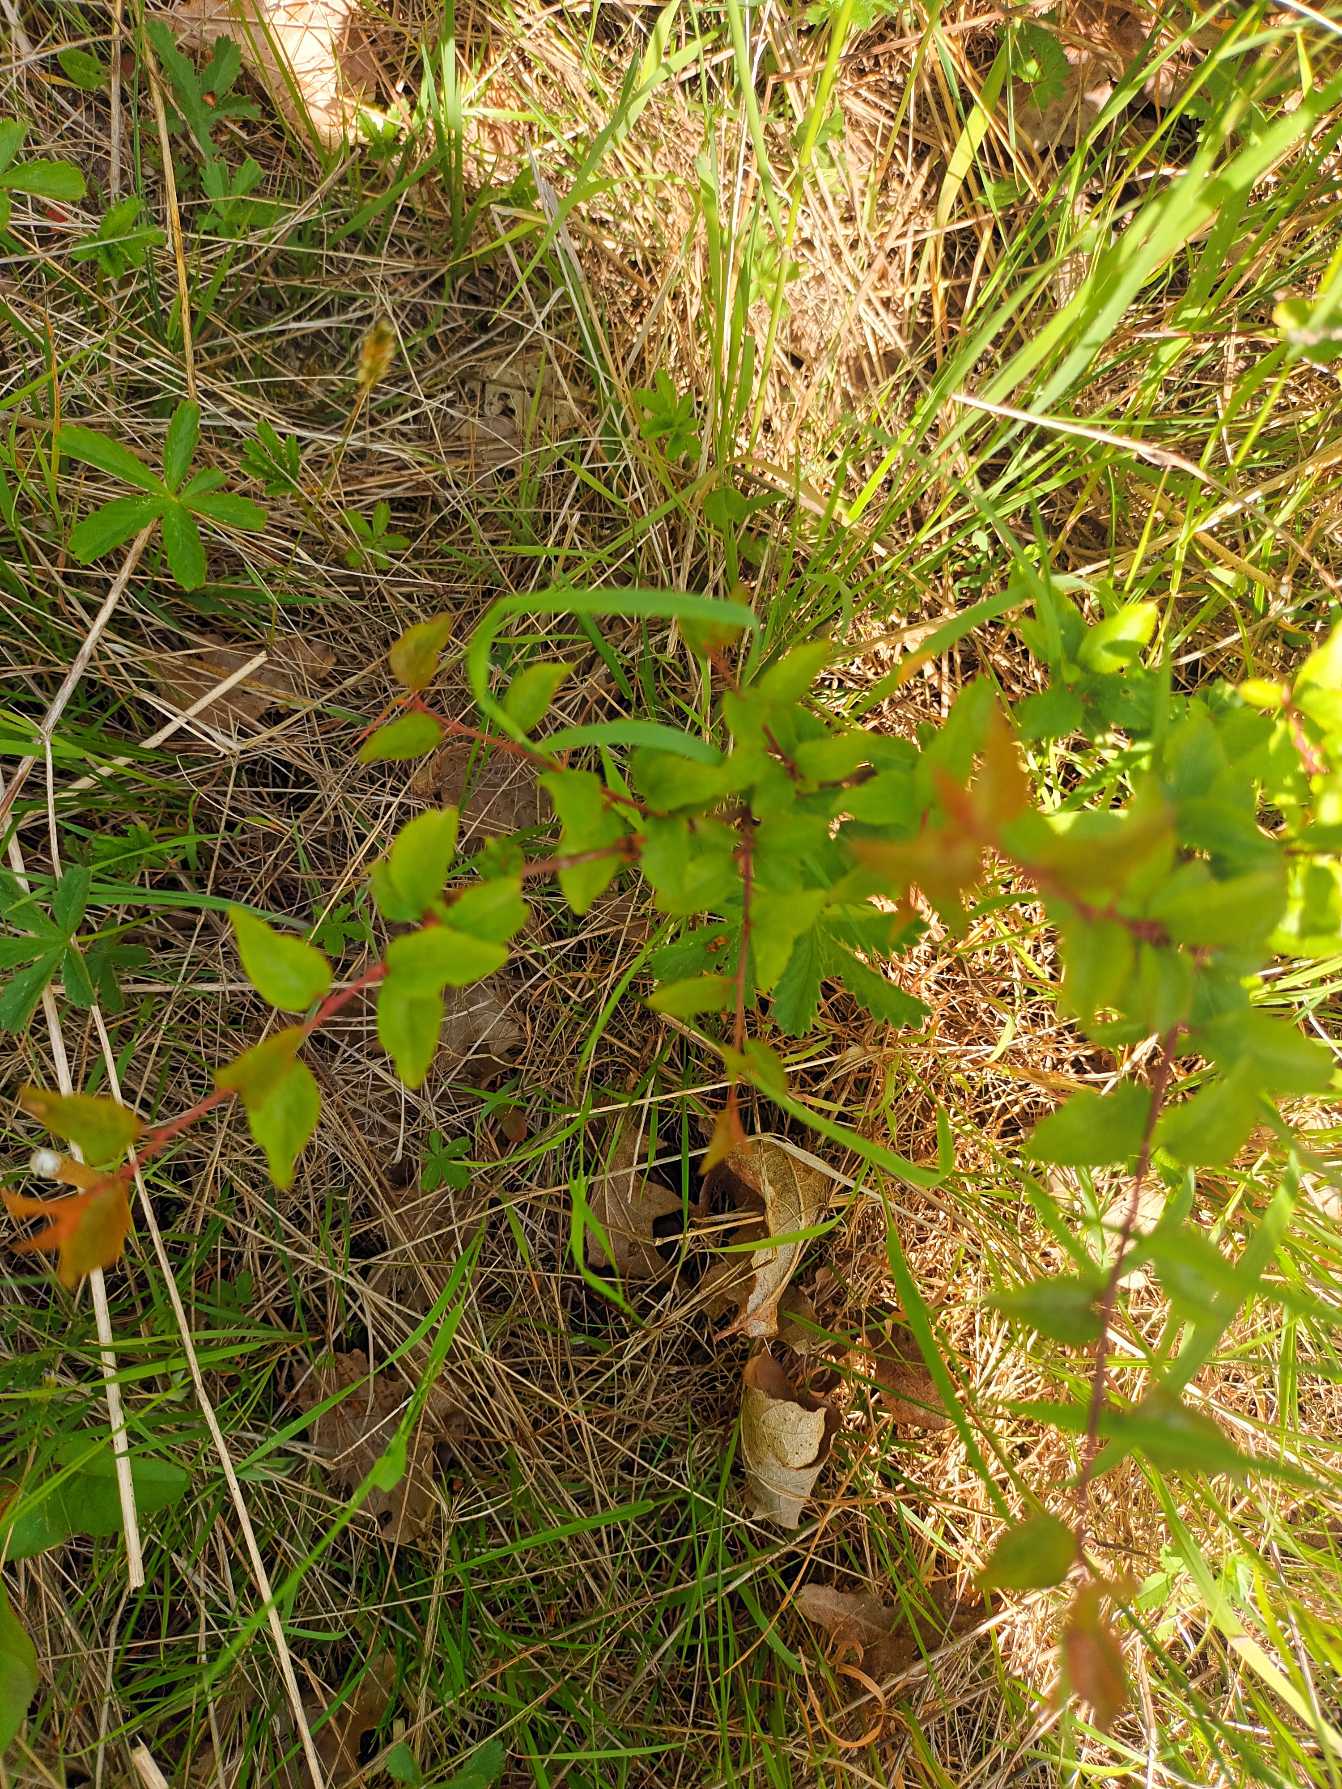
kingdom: Plantae
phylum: Tracheophyta
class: Magnoliopsida
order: Rosales
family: Rosaceae
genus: Prunus
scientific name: Prunus cerasifera
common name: Mirabel
